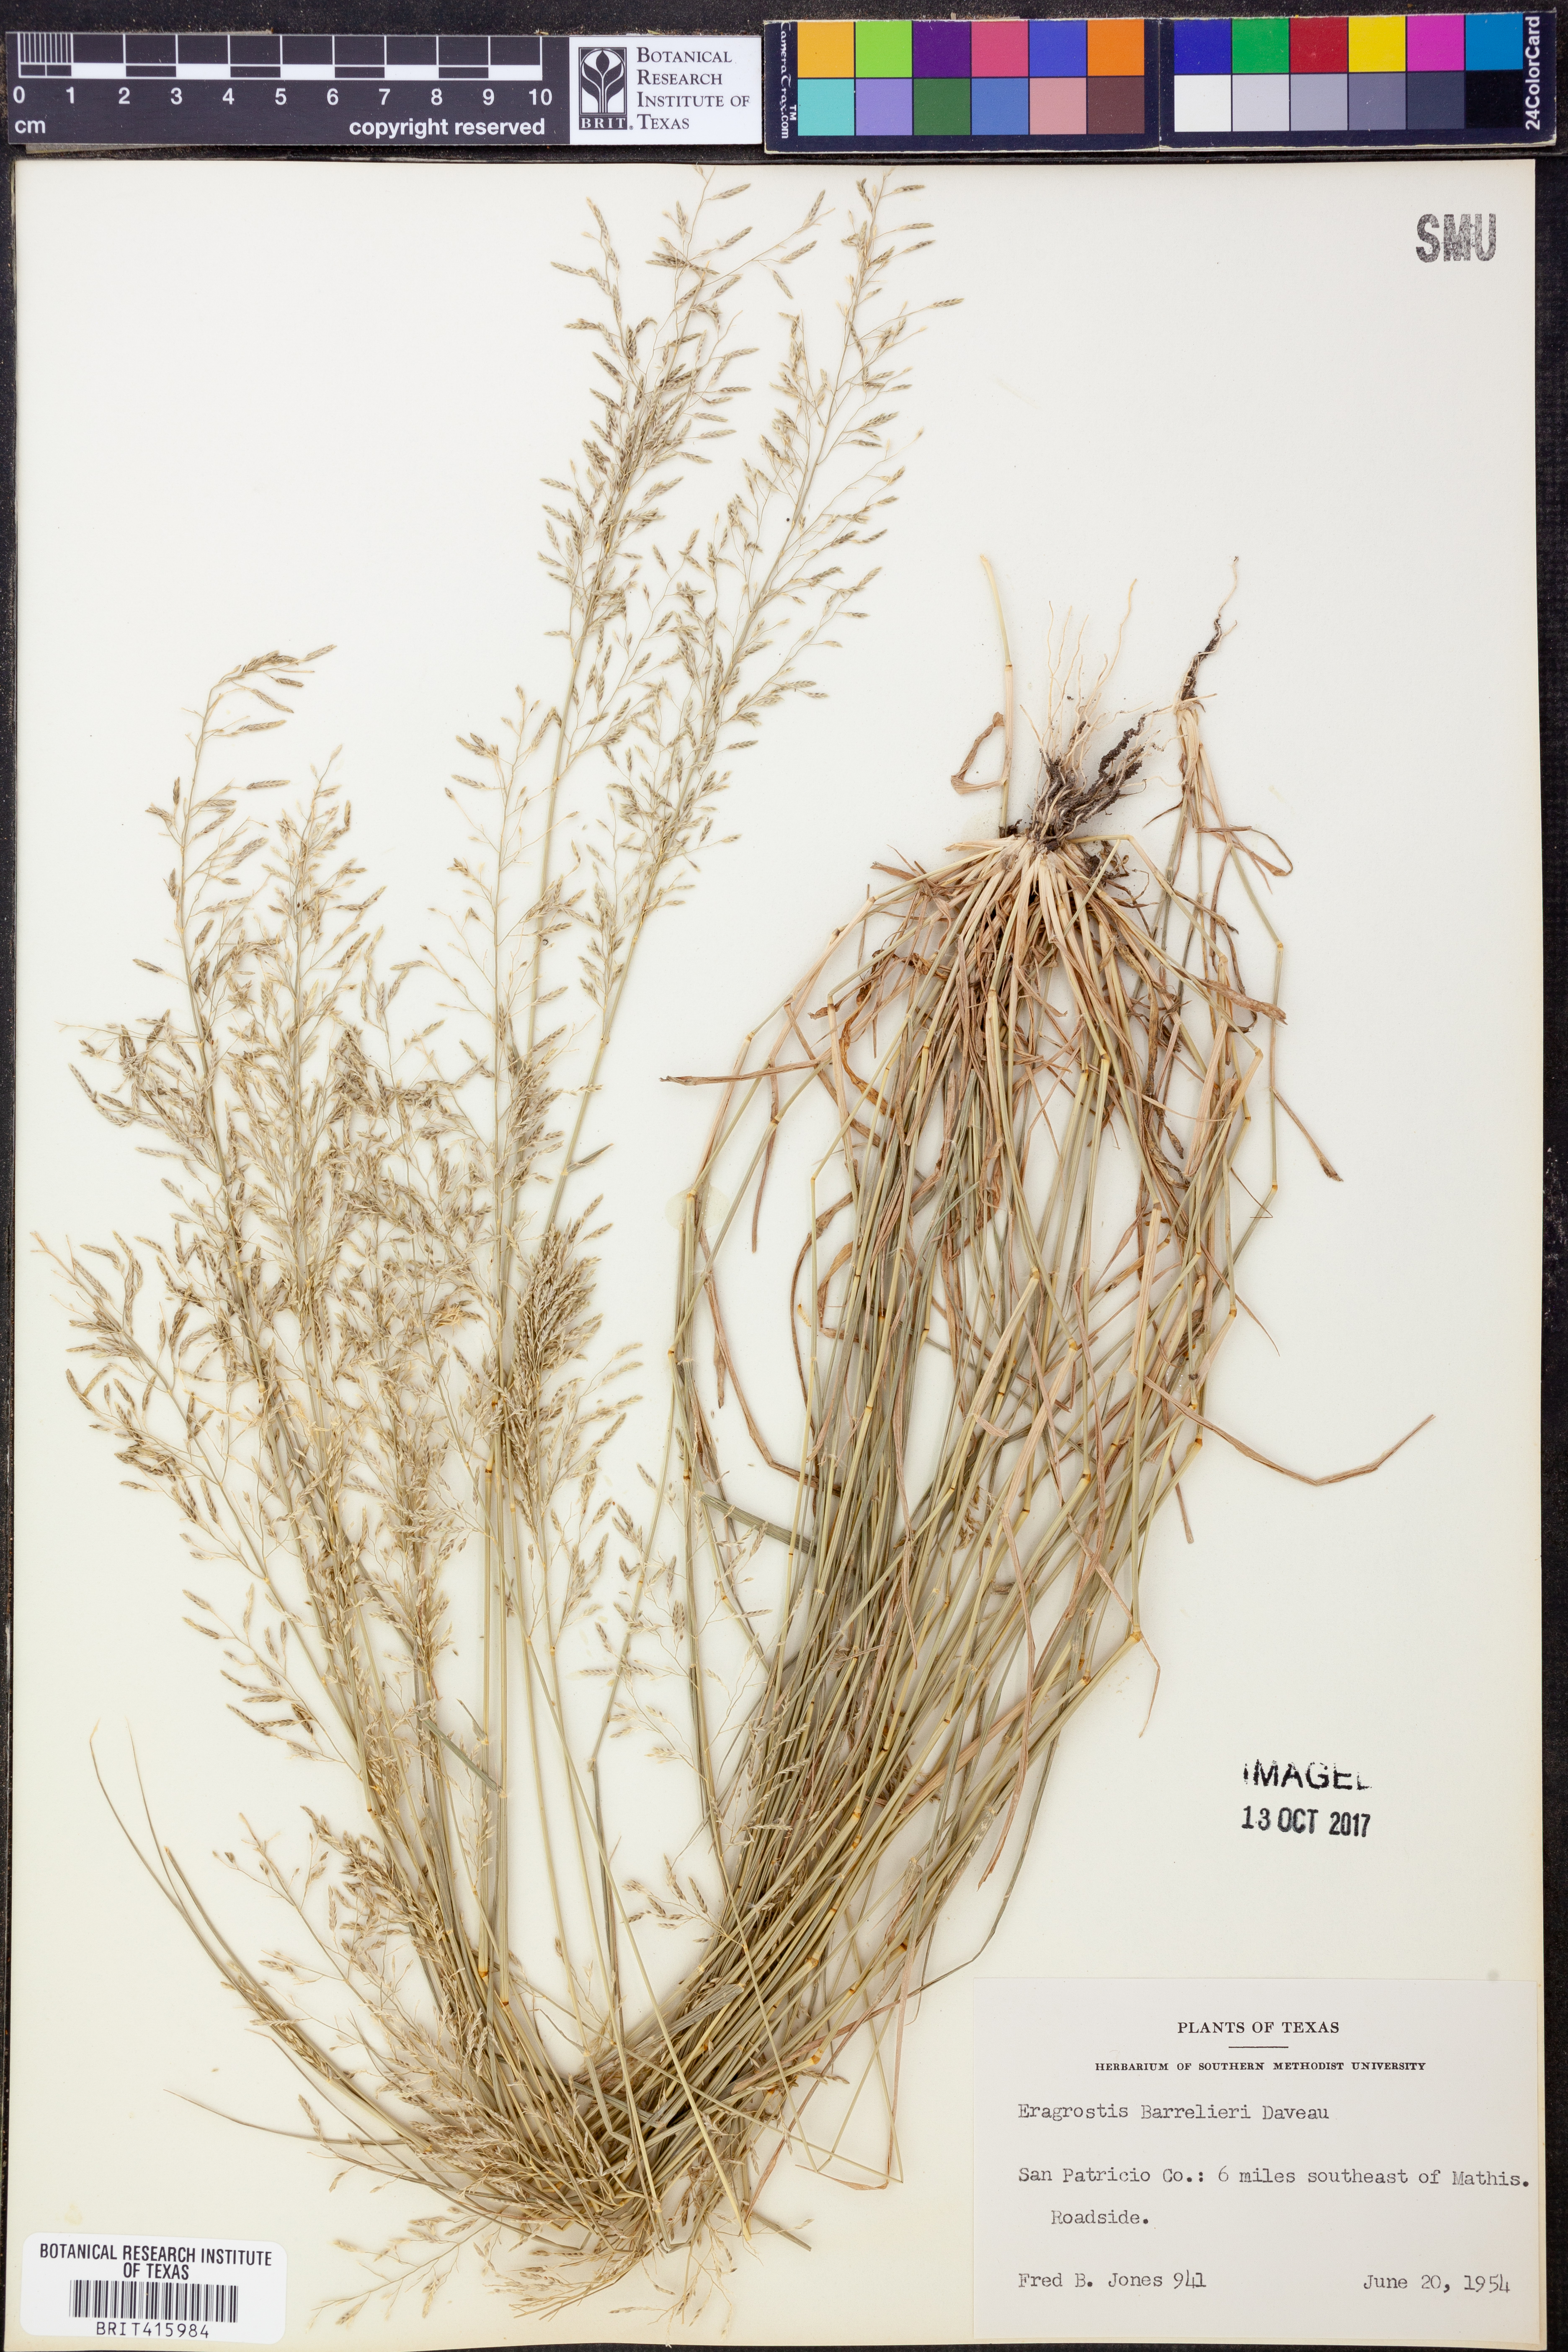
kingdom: Plantae
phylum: Tracheophyta
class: Liliopsida
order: Poales
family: Poaceae
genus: Eragrostis
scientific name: Eragrostis barrelieri
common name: Mediterranean lovegrass
